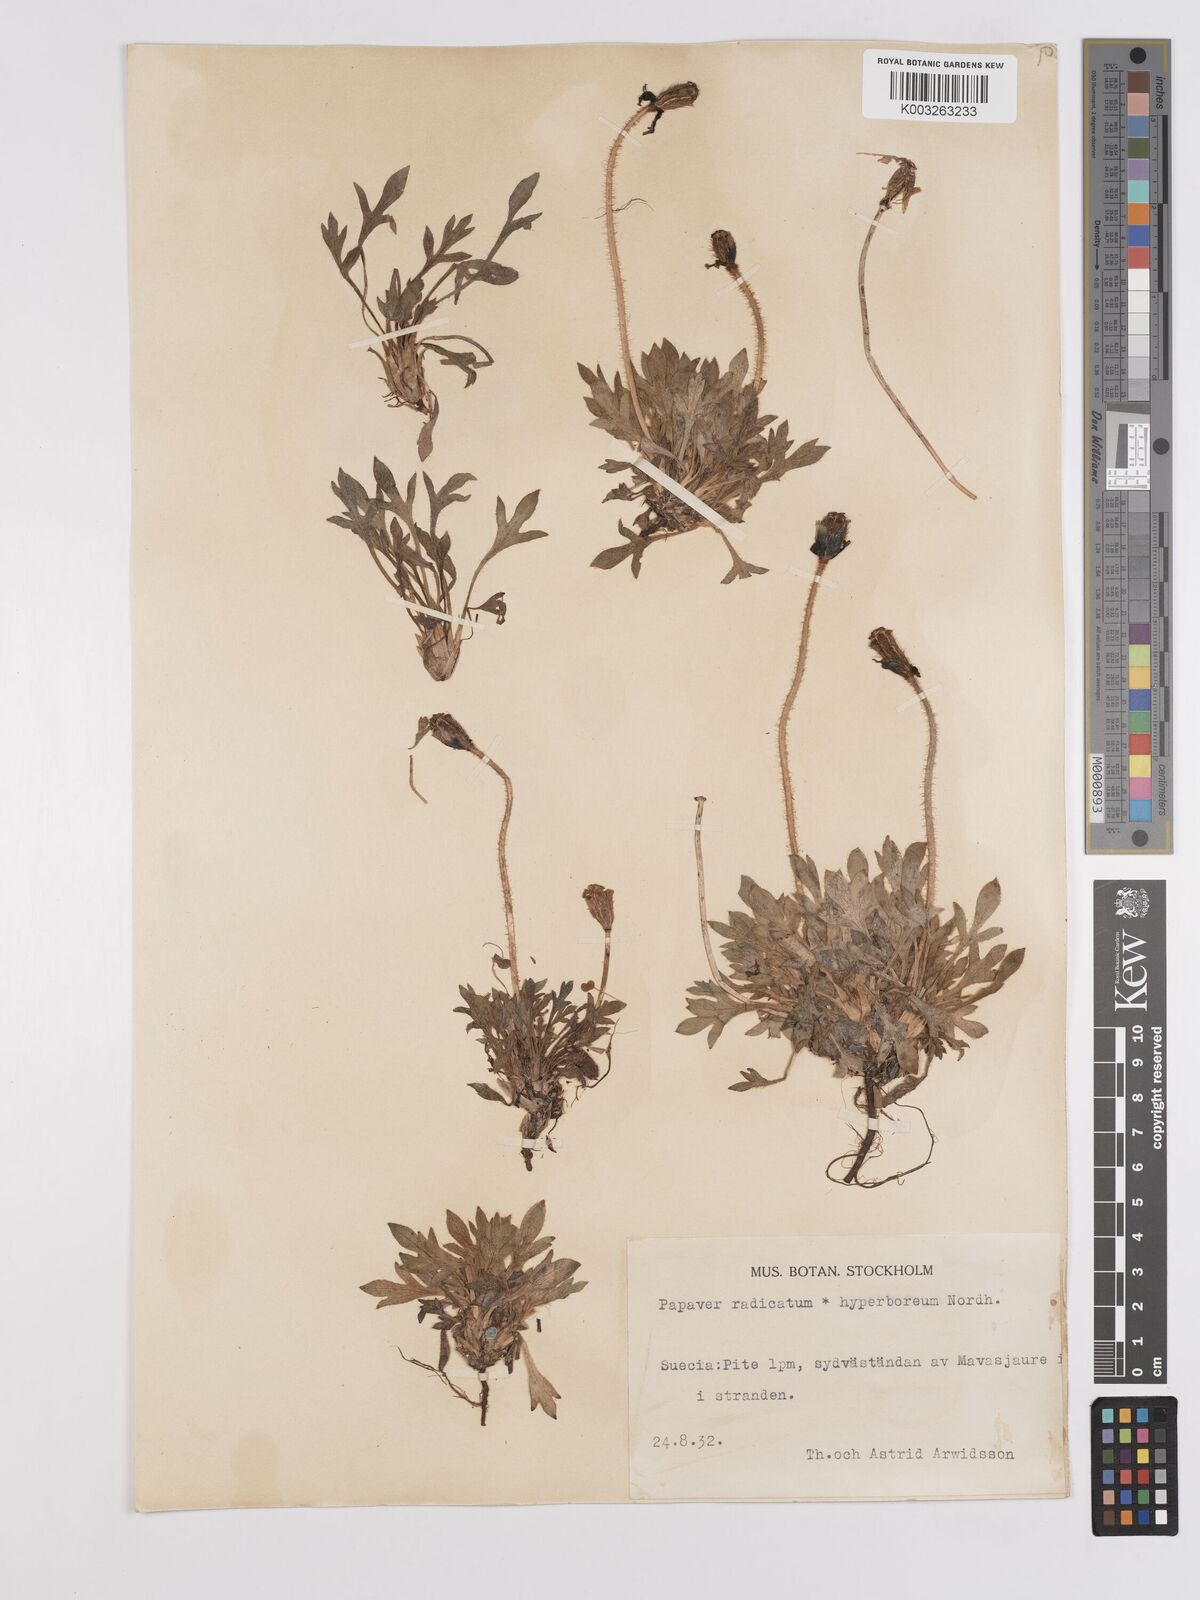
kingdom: Plantae
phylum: Tracheophyta
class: Magnoliopsida
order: Ranunculales
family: Papaveraceae
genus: Papaver
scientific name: Papaver radicatum
